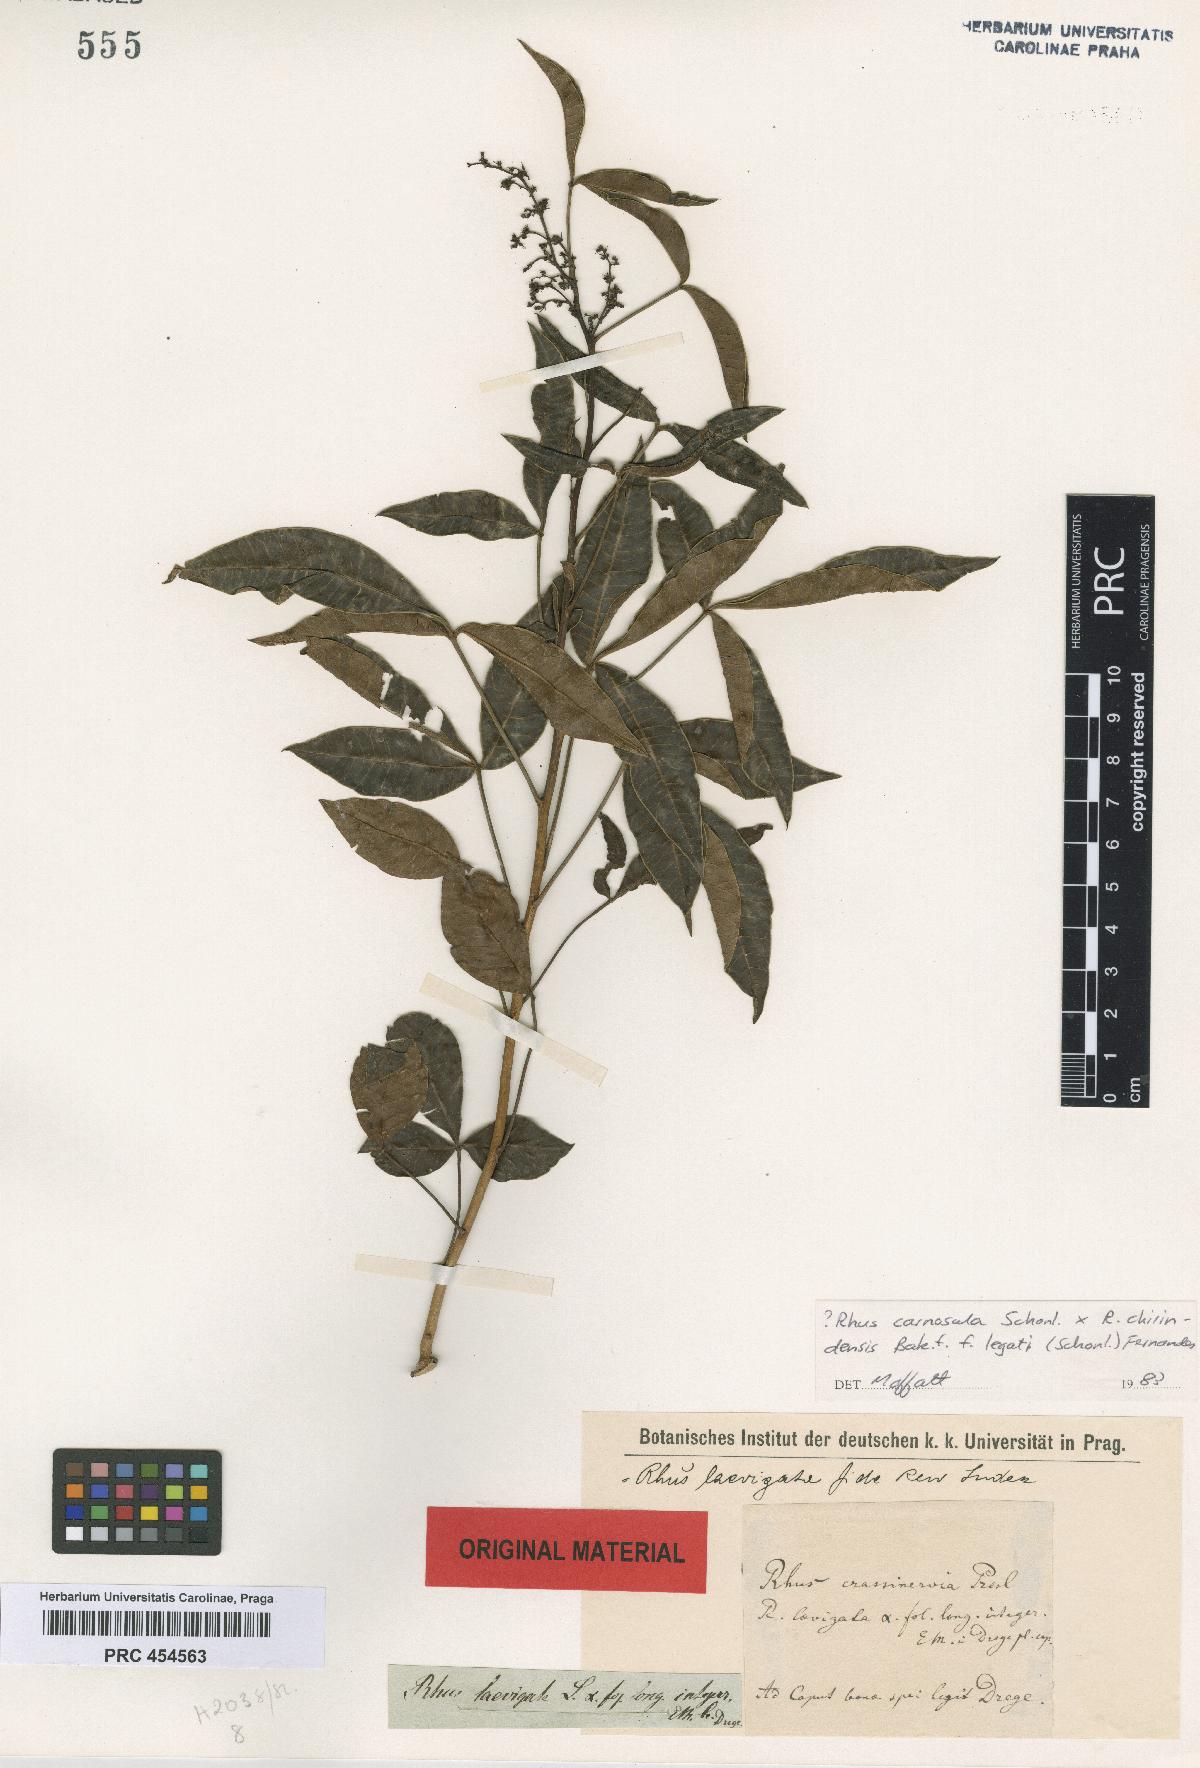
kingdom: Plantae
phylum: Tracheophyta
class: Magnoliopsida
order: Sapindales
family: Anacardiaceae
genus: Searsia
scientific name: Searsia laevigata
